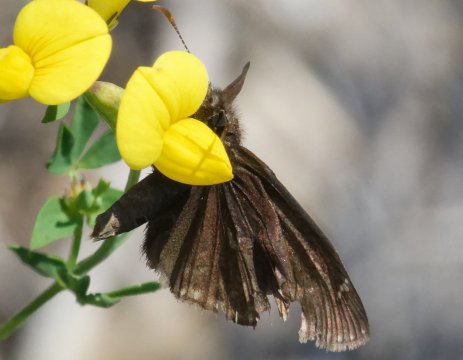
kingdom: Animalia
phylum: Arthropoda
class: Insecta
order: Lepidoptera
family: Hesperiidae
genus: Gesta
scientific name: Gesta
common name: Wild Indigo Duskywing
